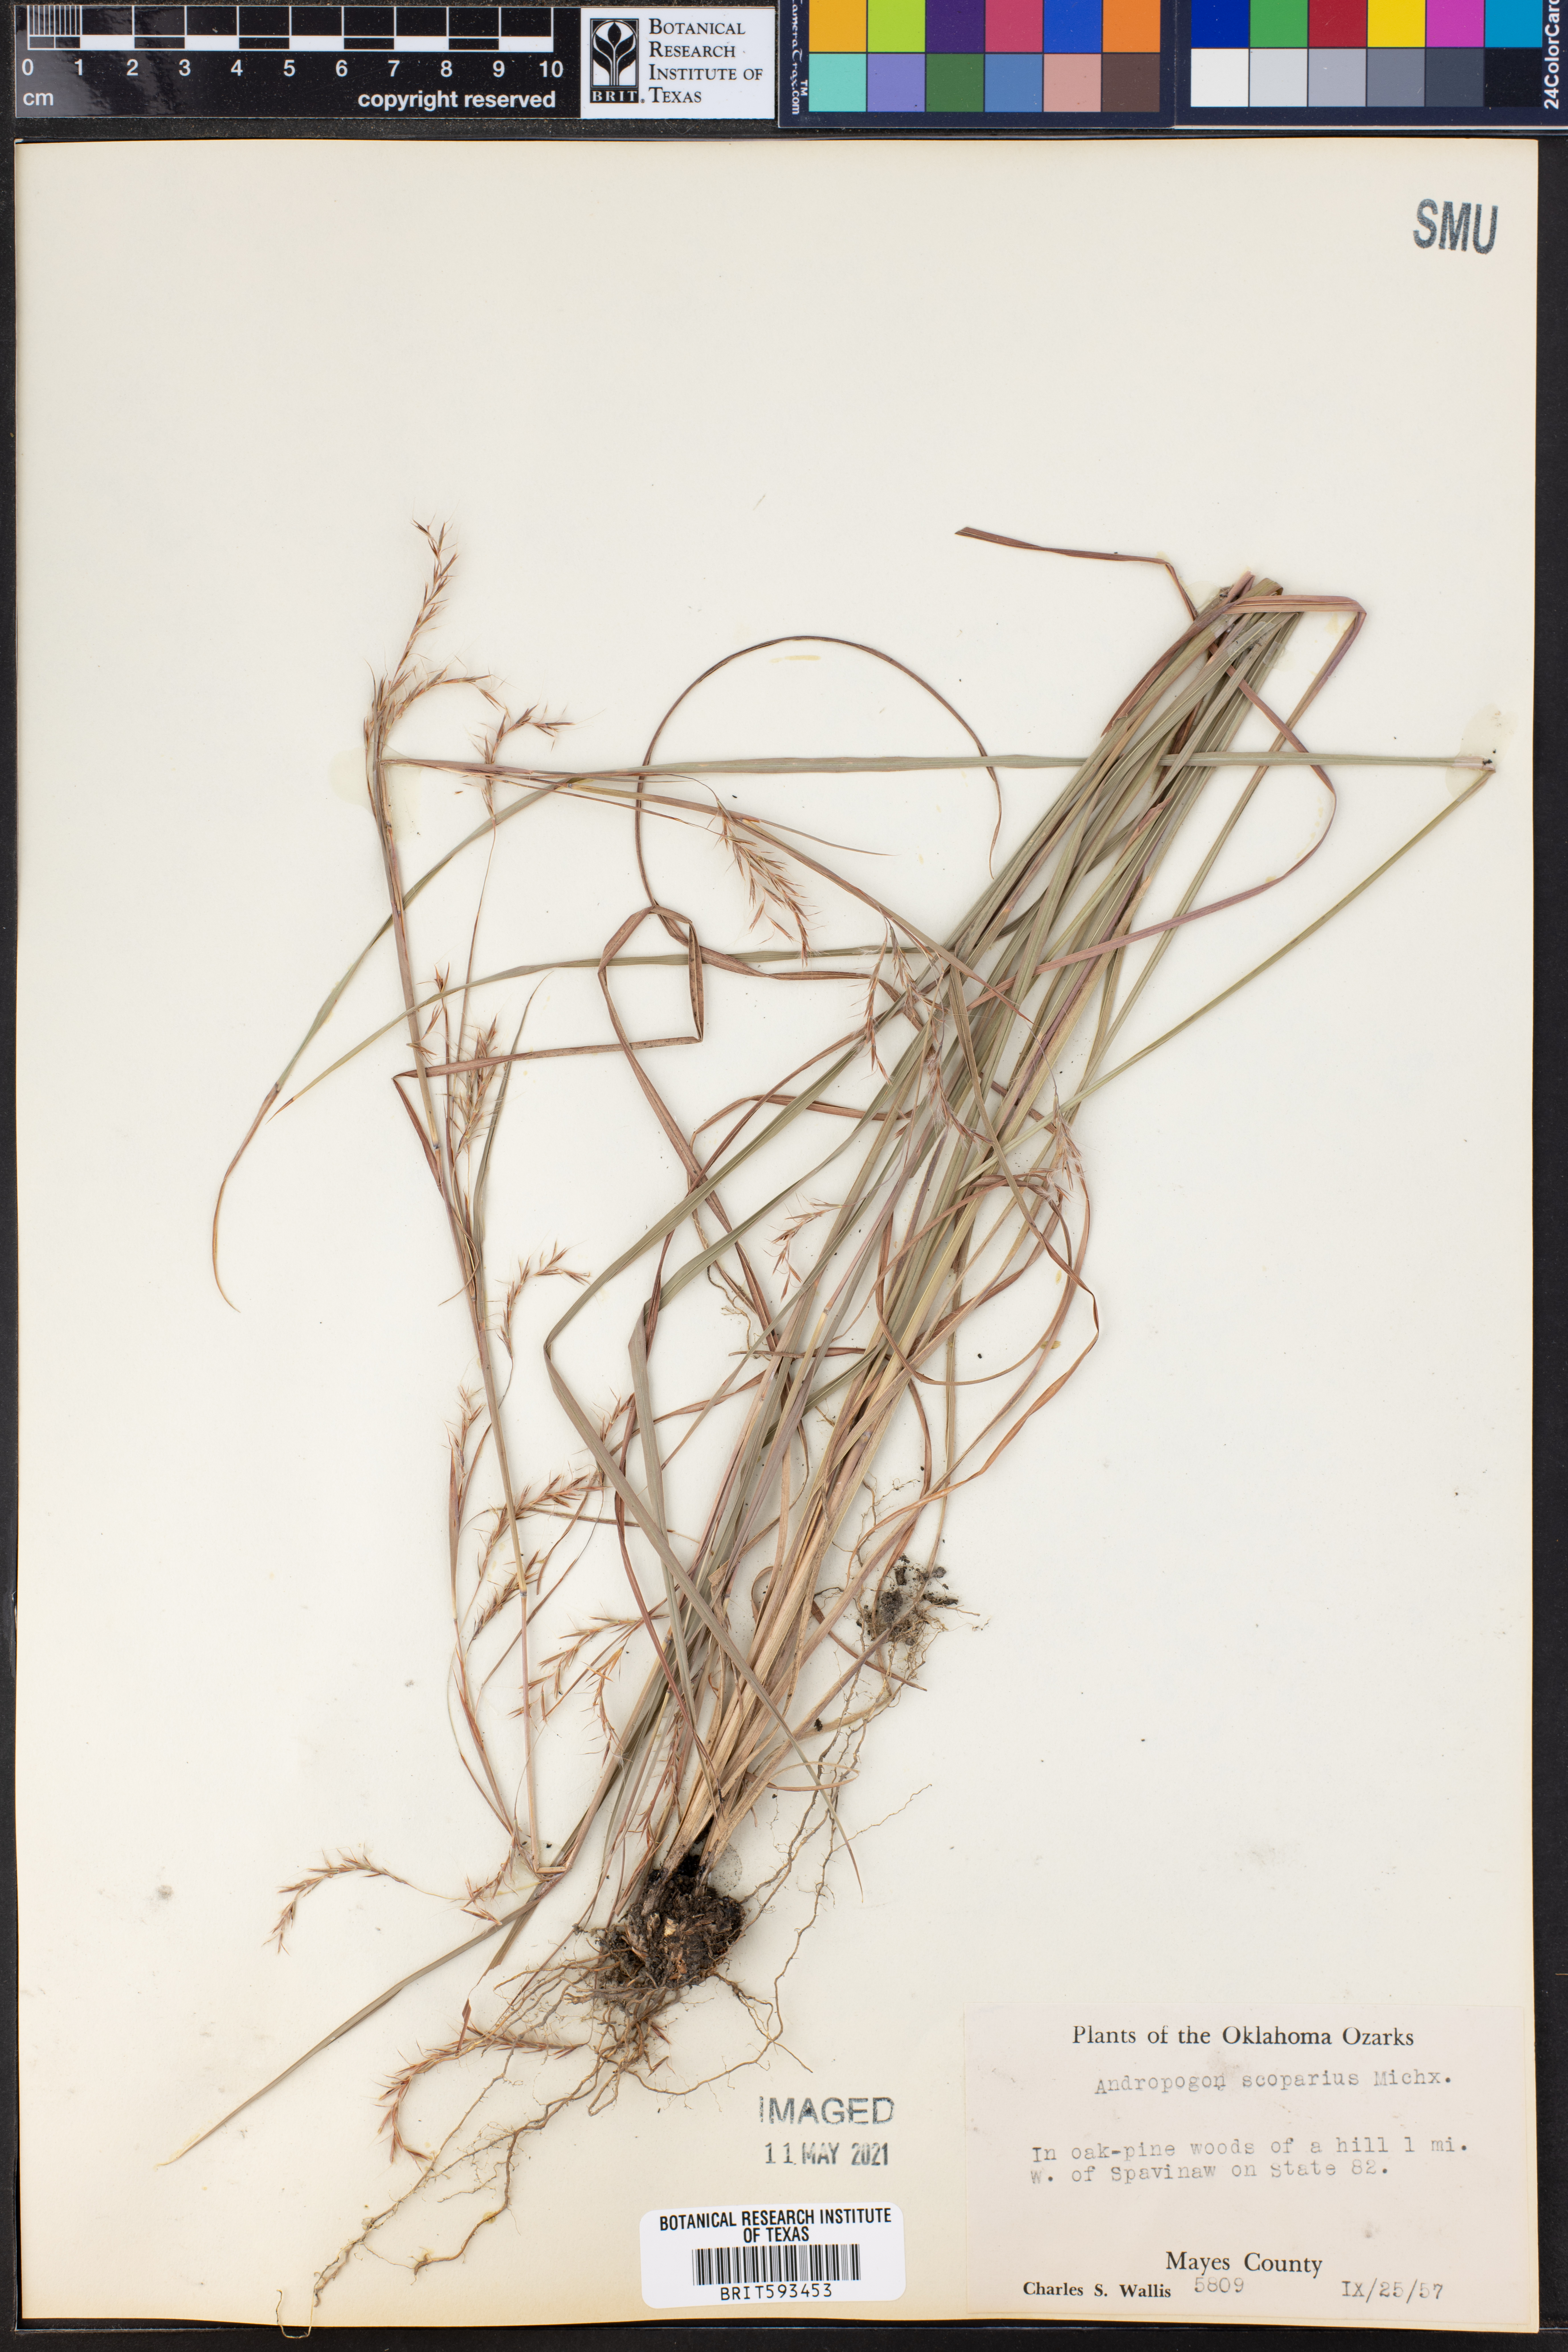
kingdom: Plantae
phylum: Tracheophyta
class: Liliopsida
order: Poales
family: Poaceae
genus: Schizachyrium
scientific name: Schizachyrium scoparium
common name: Little bluestem
